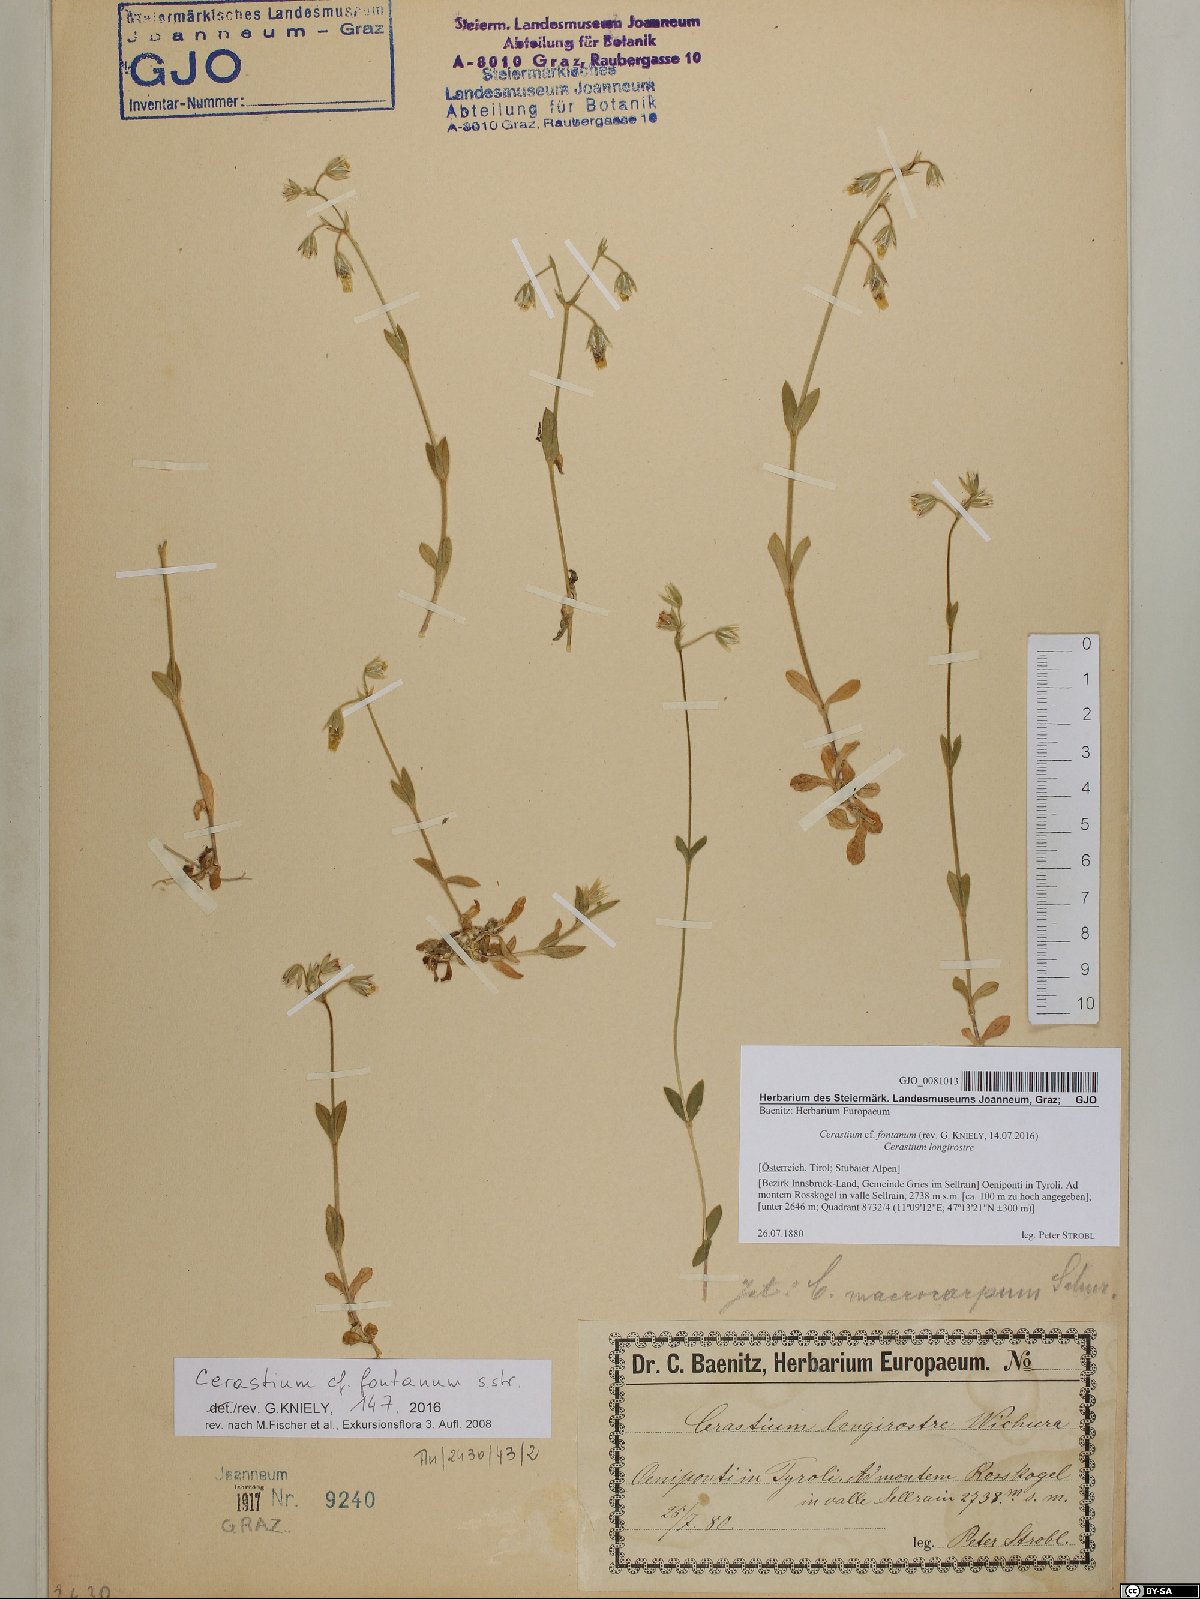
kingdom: Plantae
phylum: Tracheophyta
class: Magnoliopsida
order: Caryophyllales
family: Caryophyllaceae
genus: Cerastium
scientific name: Cerastium fontanum
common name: Common mouse-ear
